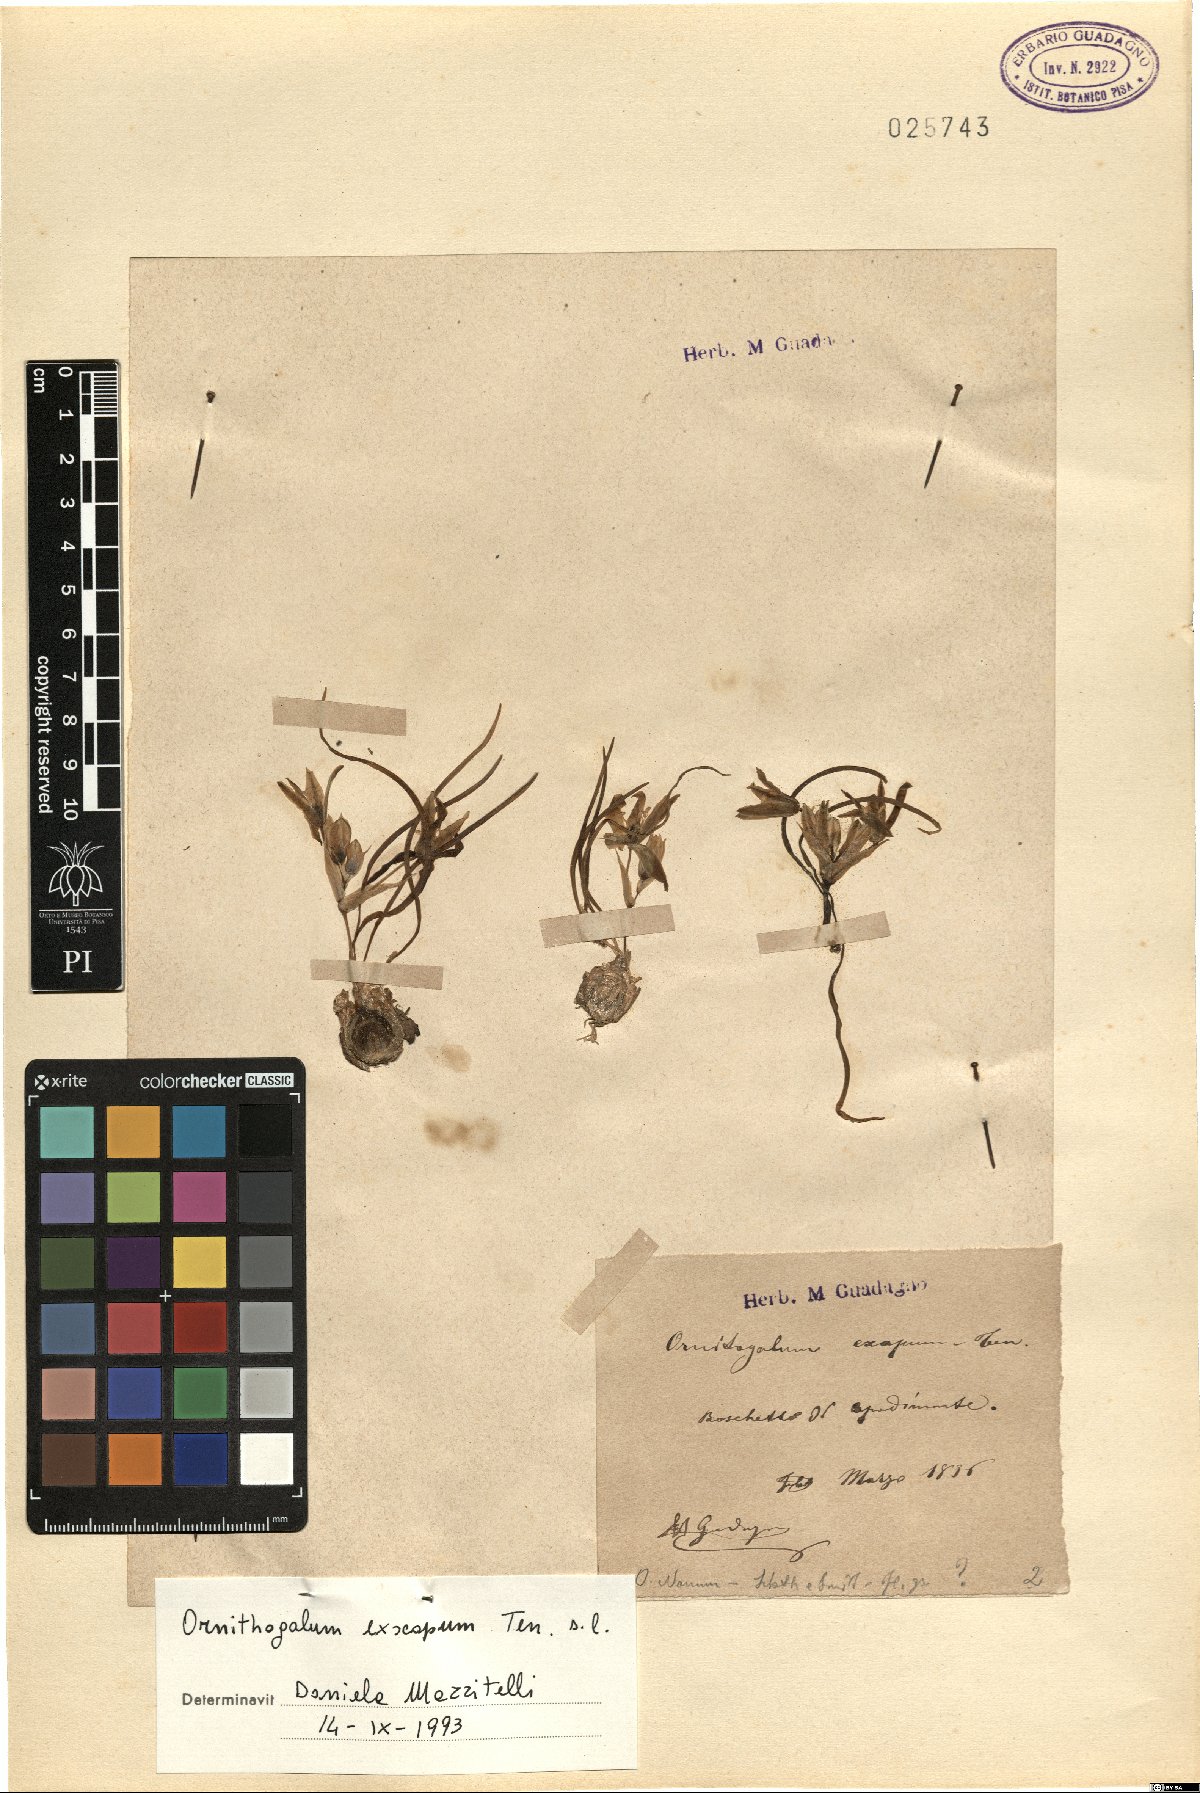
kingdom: Plantae
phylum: Tracheophyta
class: Liliopsida
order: Asparagales
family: Asparagaceae
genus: Ornithogalum
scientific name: Ornithogalum exscapum
